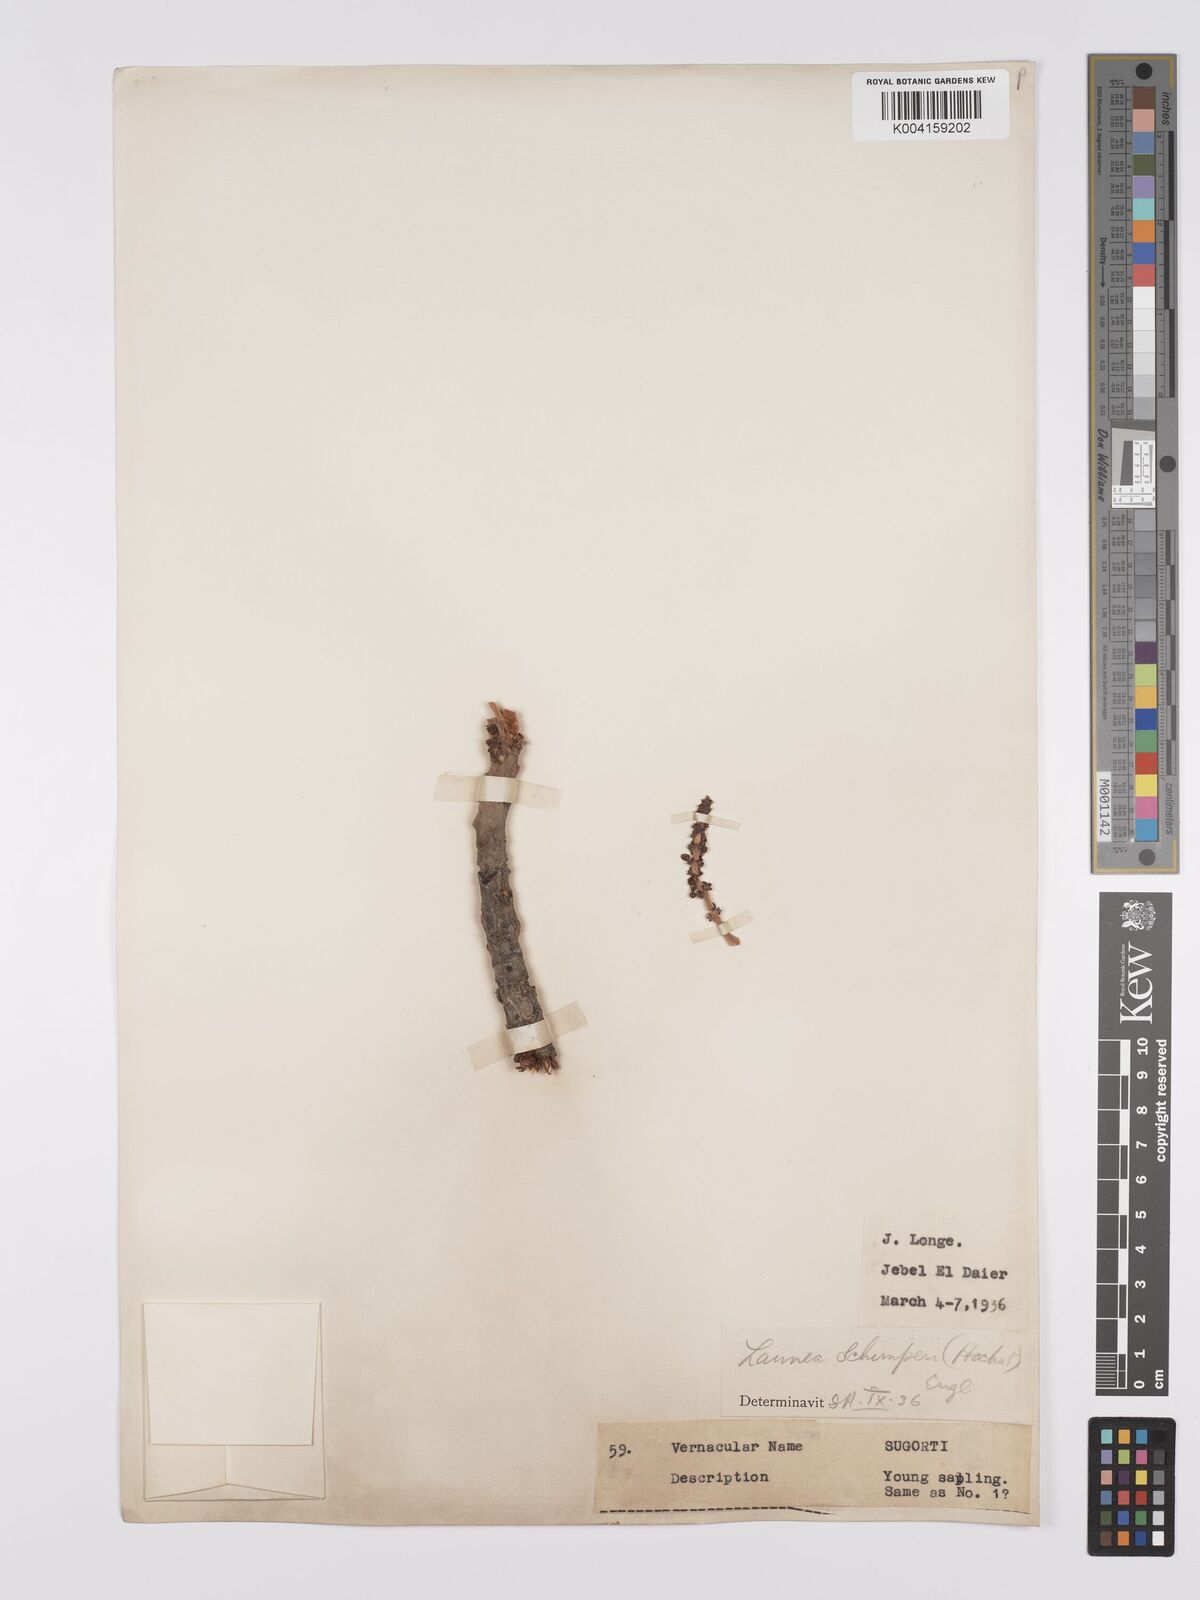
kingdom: Plantae
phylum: Tracheophyta
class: Magnoliopsida
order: Sapindales
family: Anacardiaceae
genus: Lannea
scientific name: Lannea schimperi
